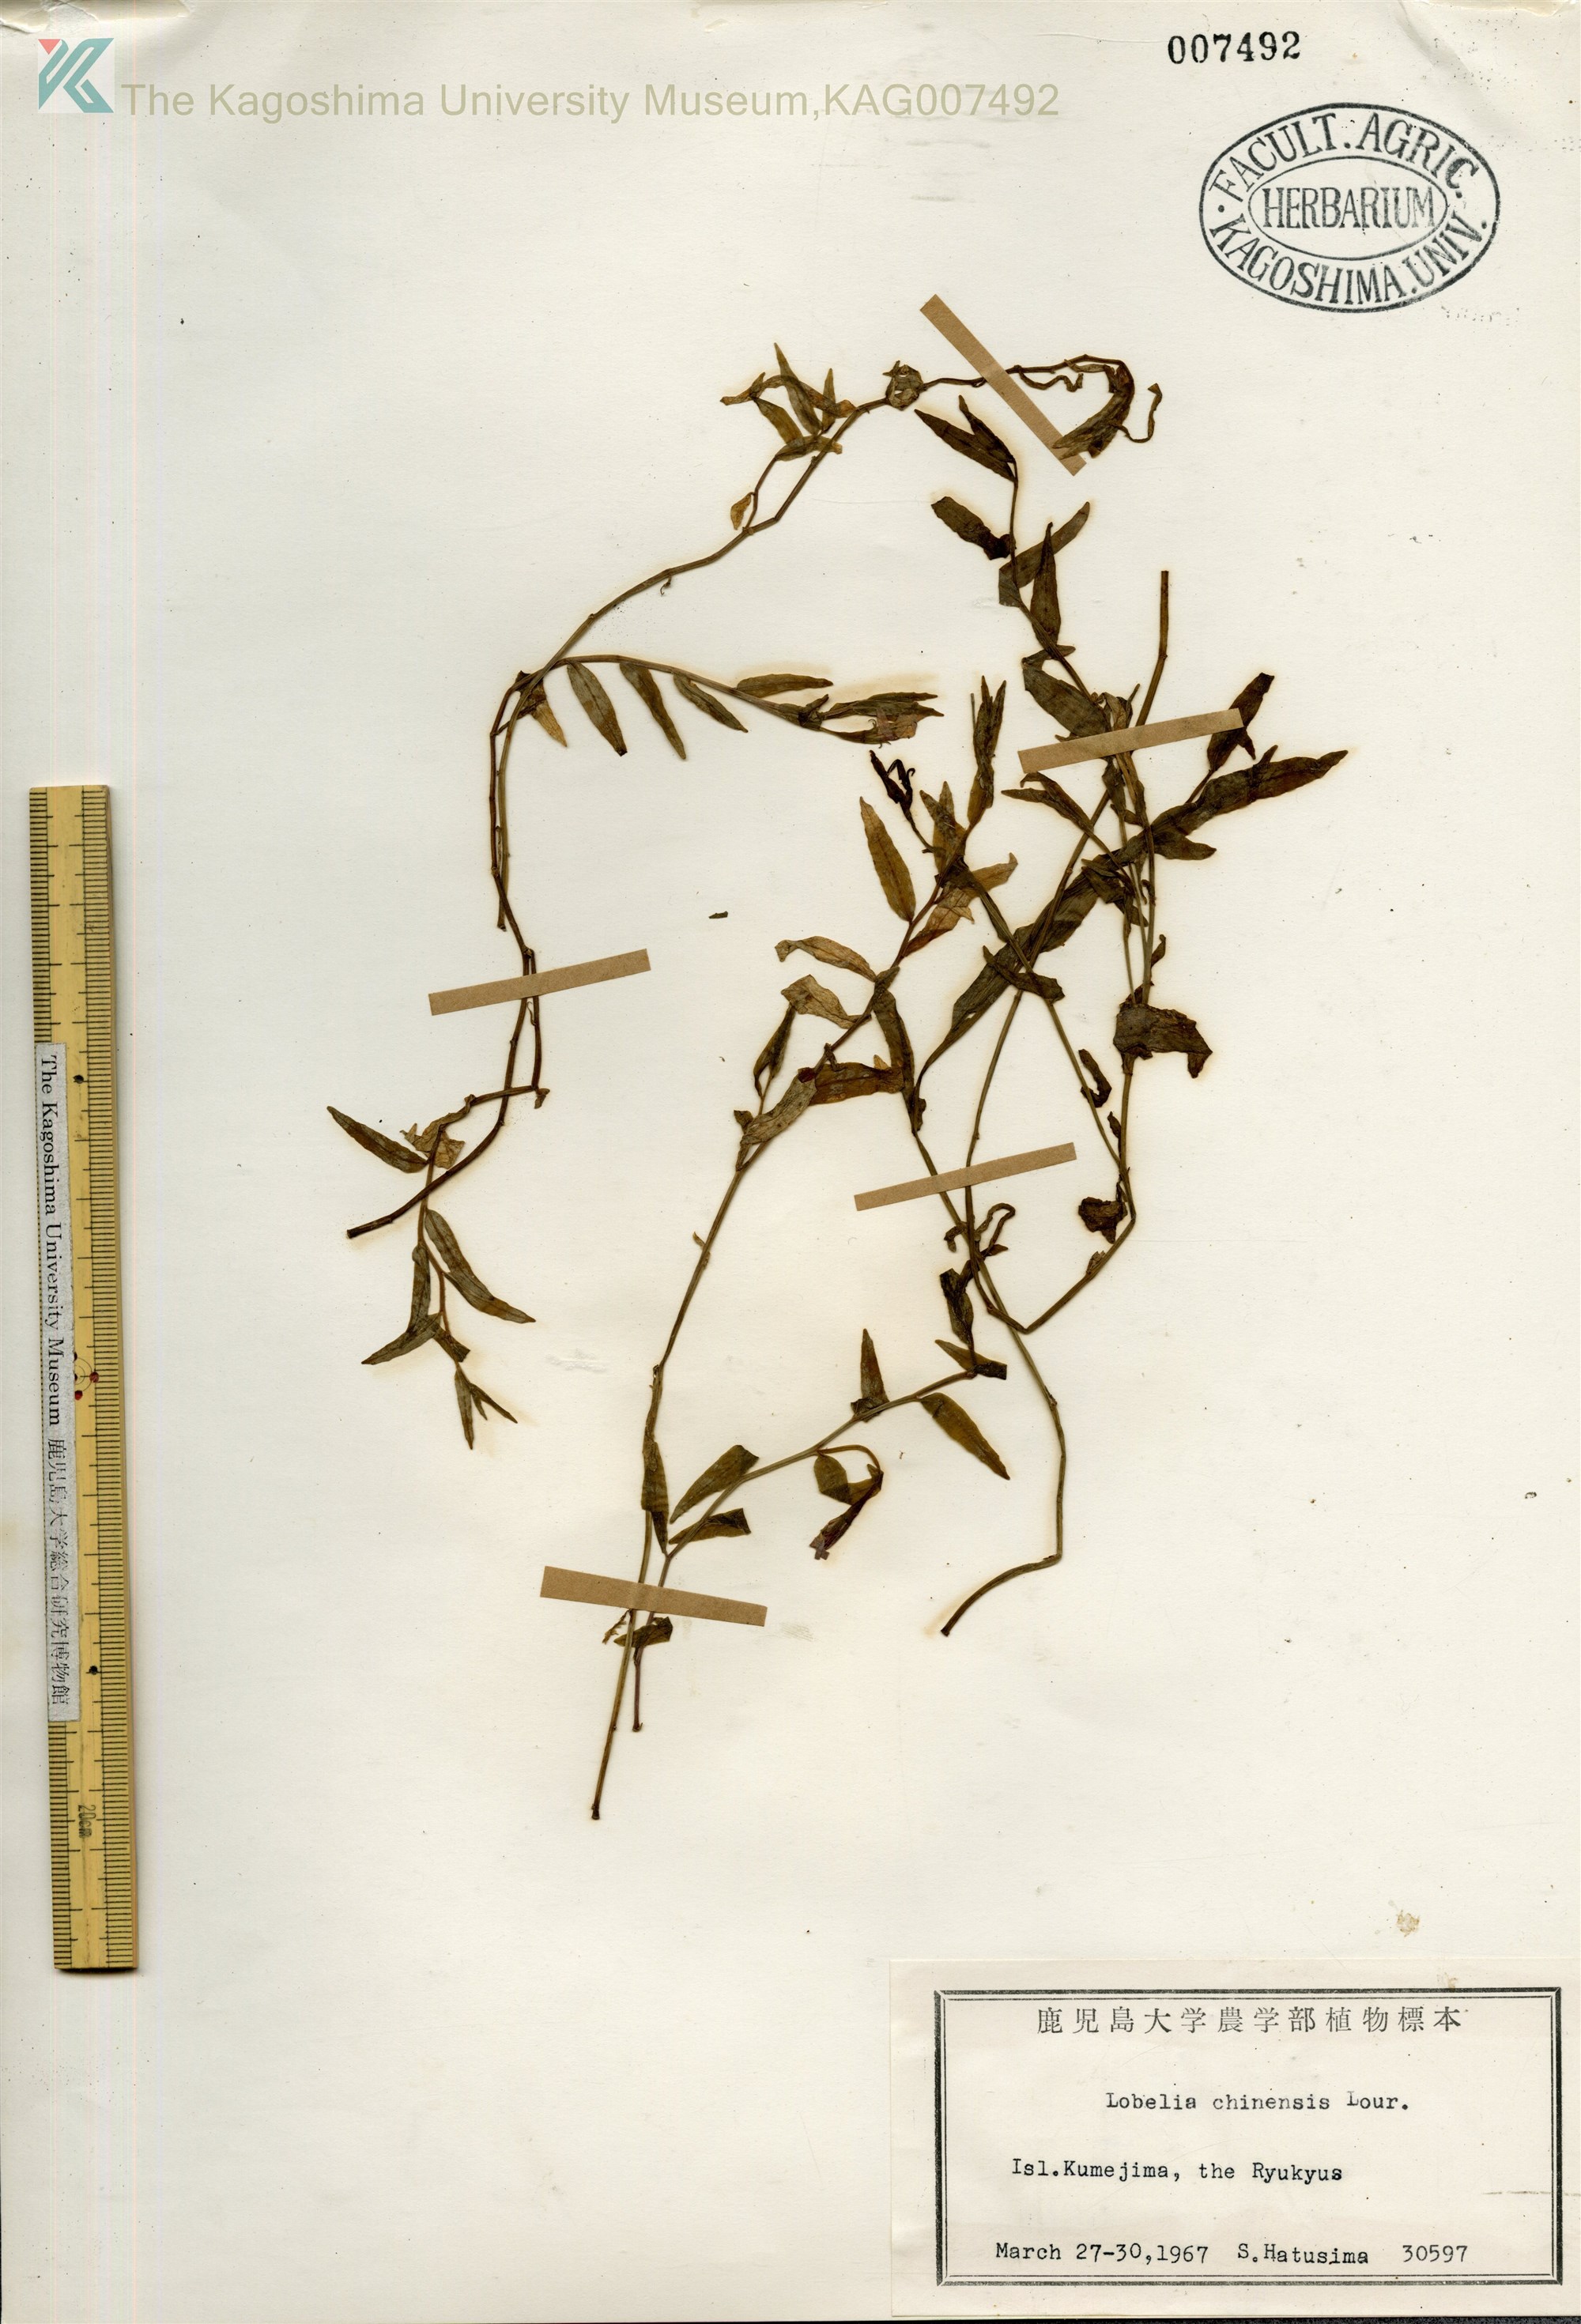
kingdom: Plantae
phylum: Tracheophyta
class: Magnoliopsida
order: Asterales
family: Campanulaceae
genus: Lobelia
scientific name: Lobelia chinensis
